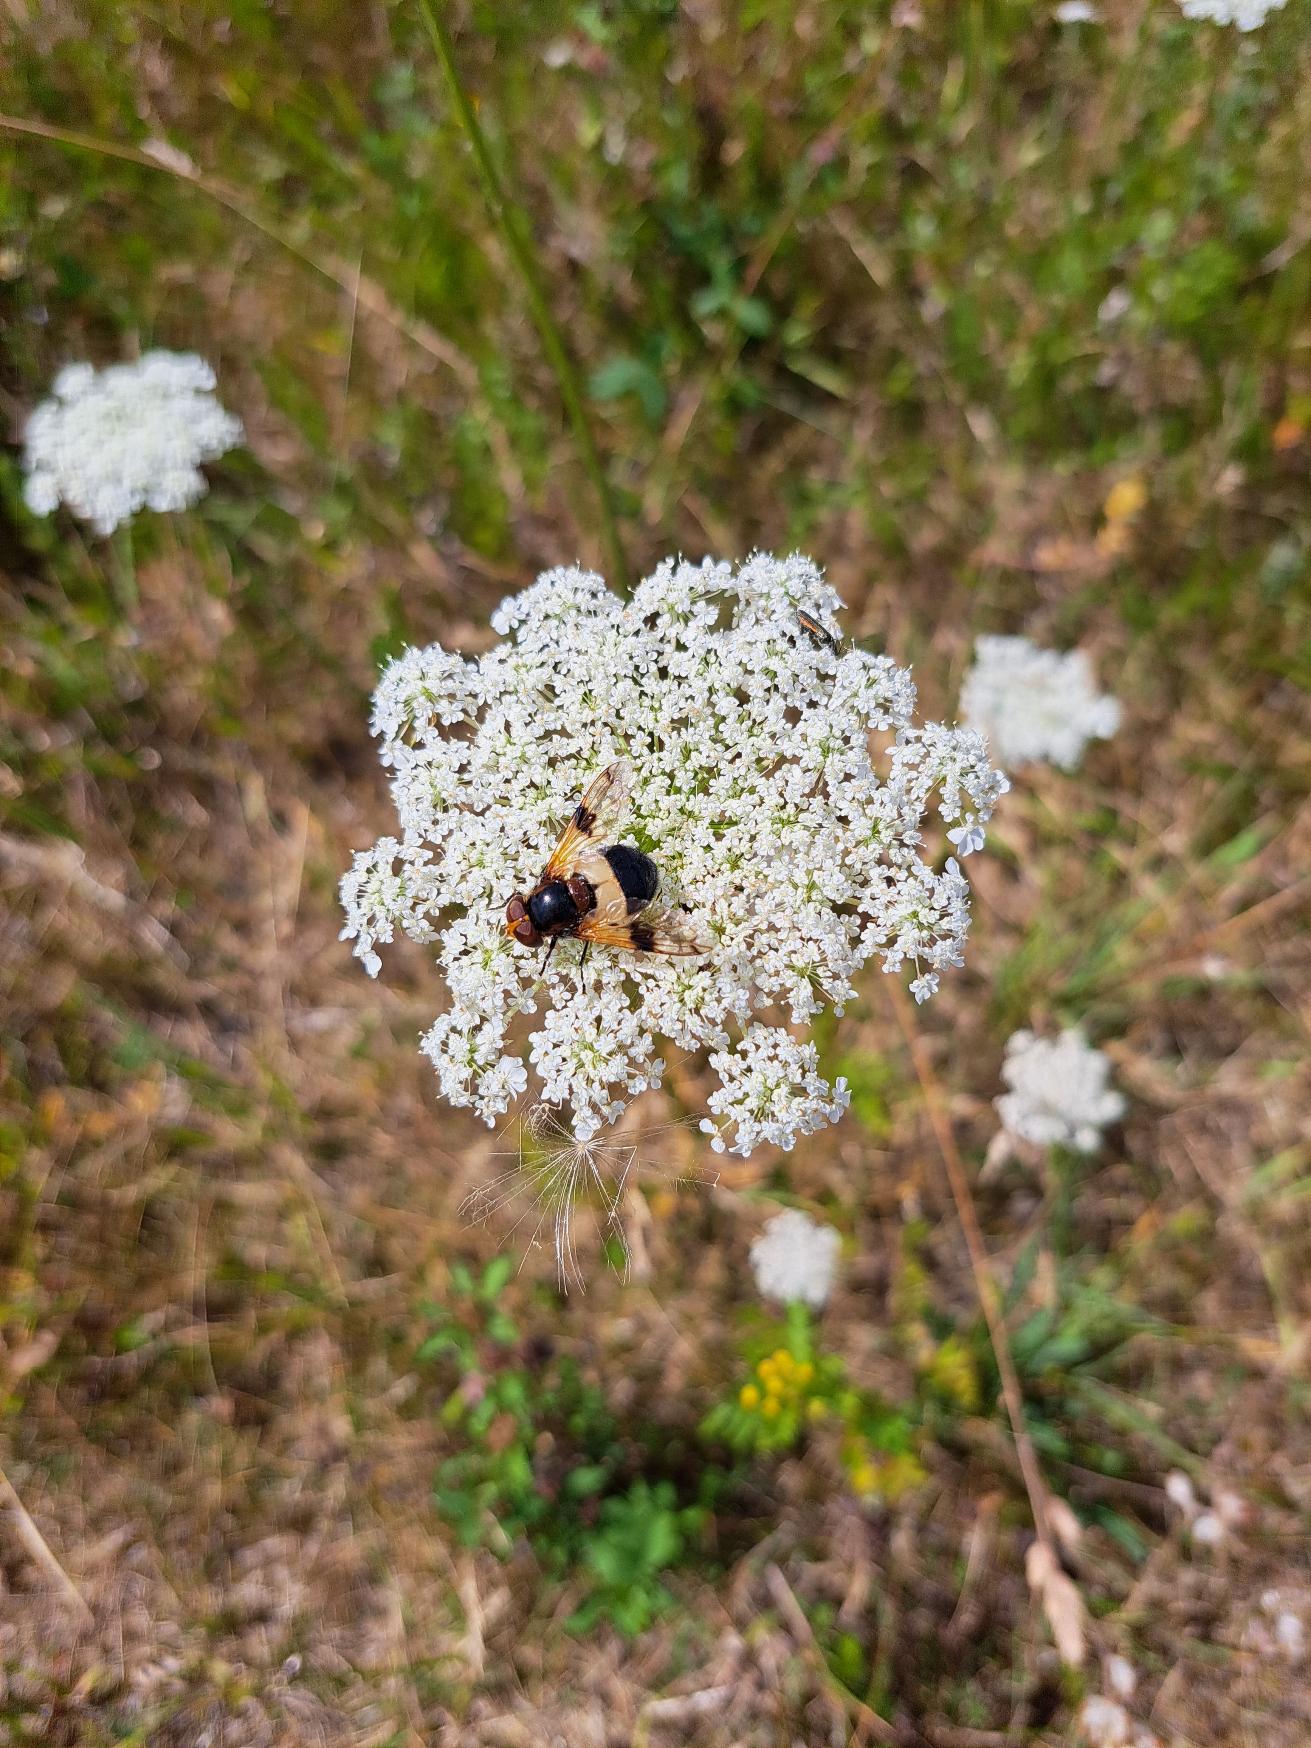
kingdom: Animalia
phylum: Arthropoda
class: Insecta
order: Diptera
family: Syrphidae
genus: Volucella
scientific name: Volucella pellucens
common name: Hvidbåndet humlesvirreflue
